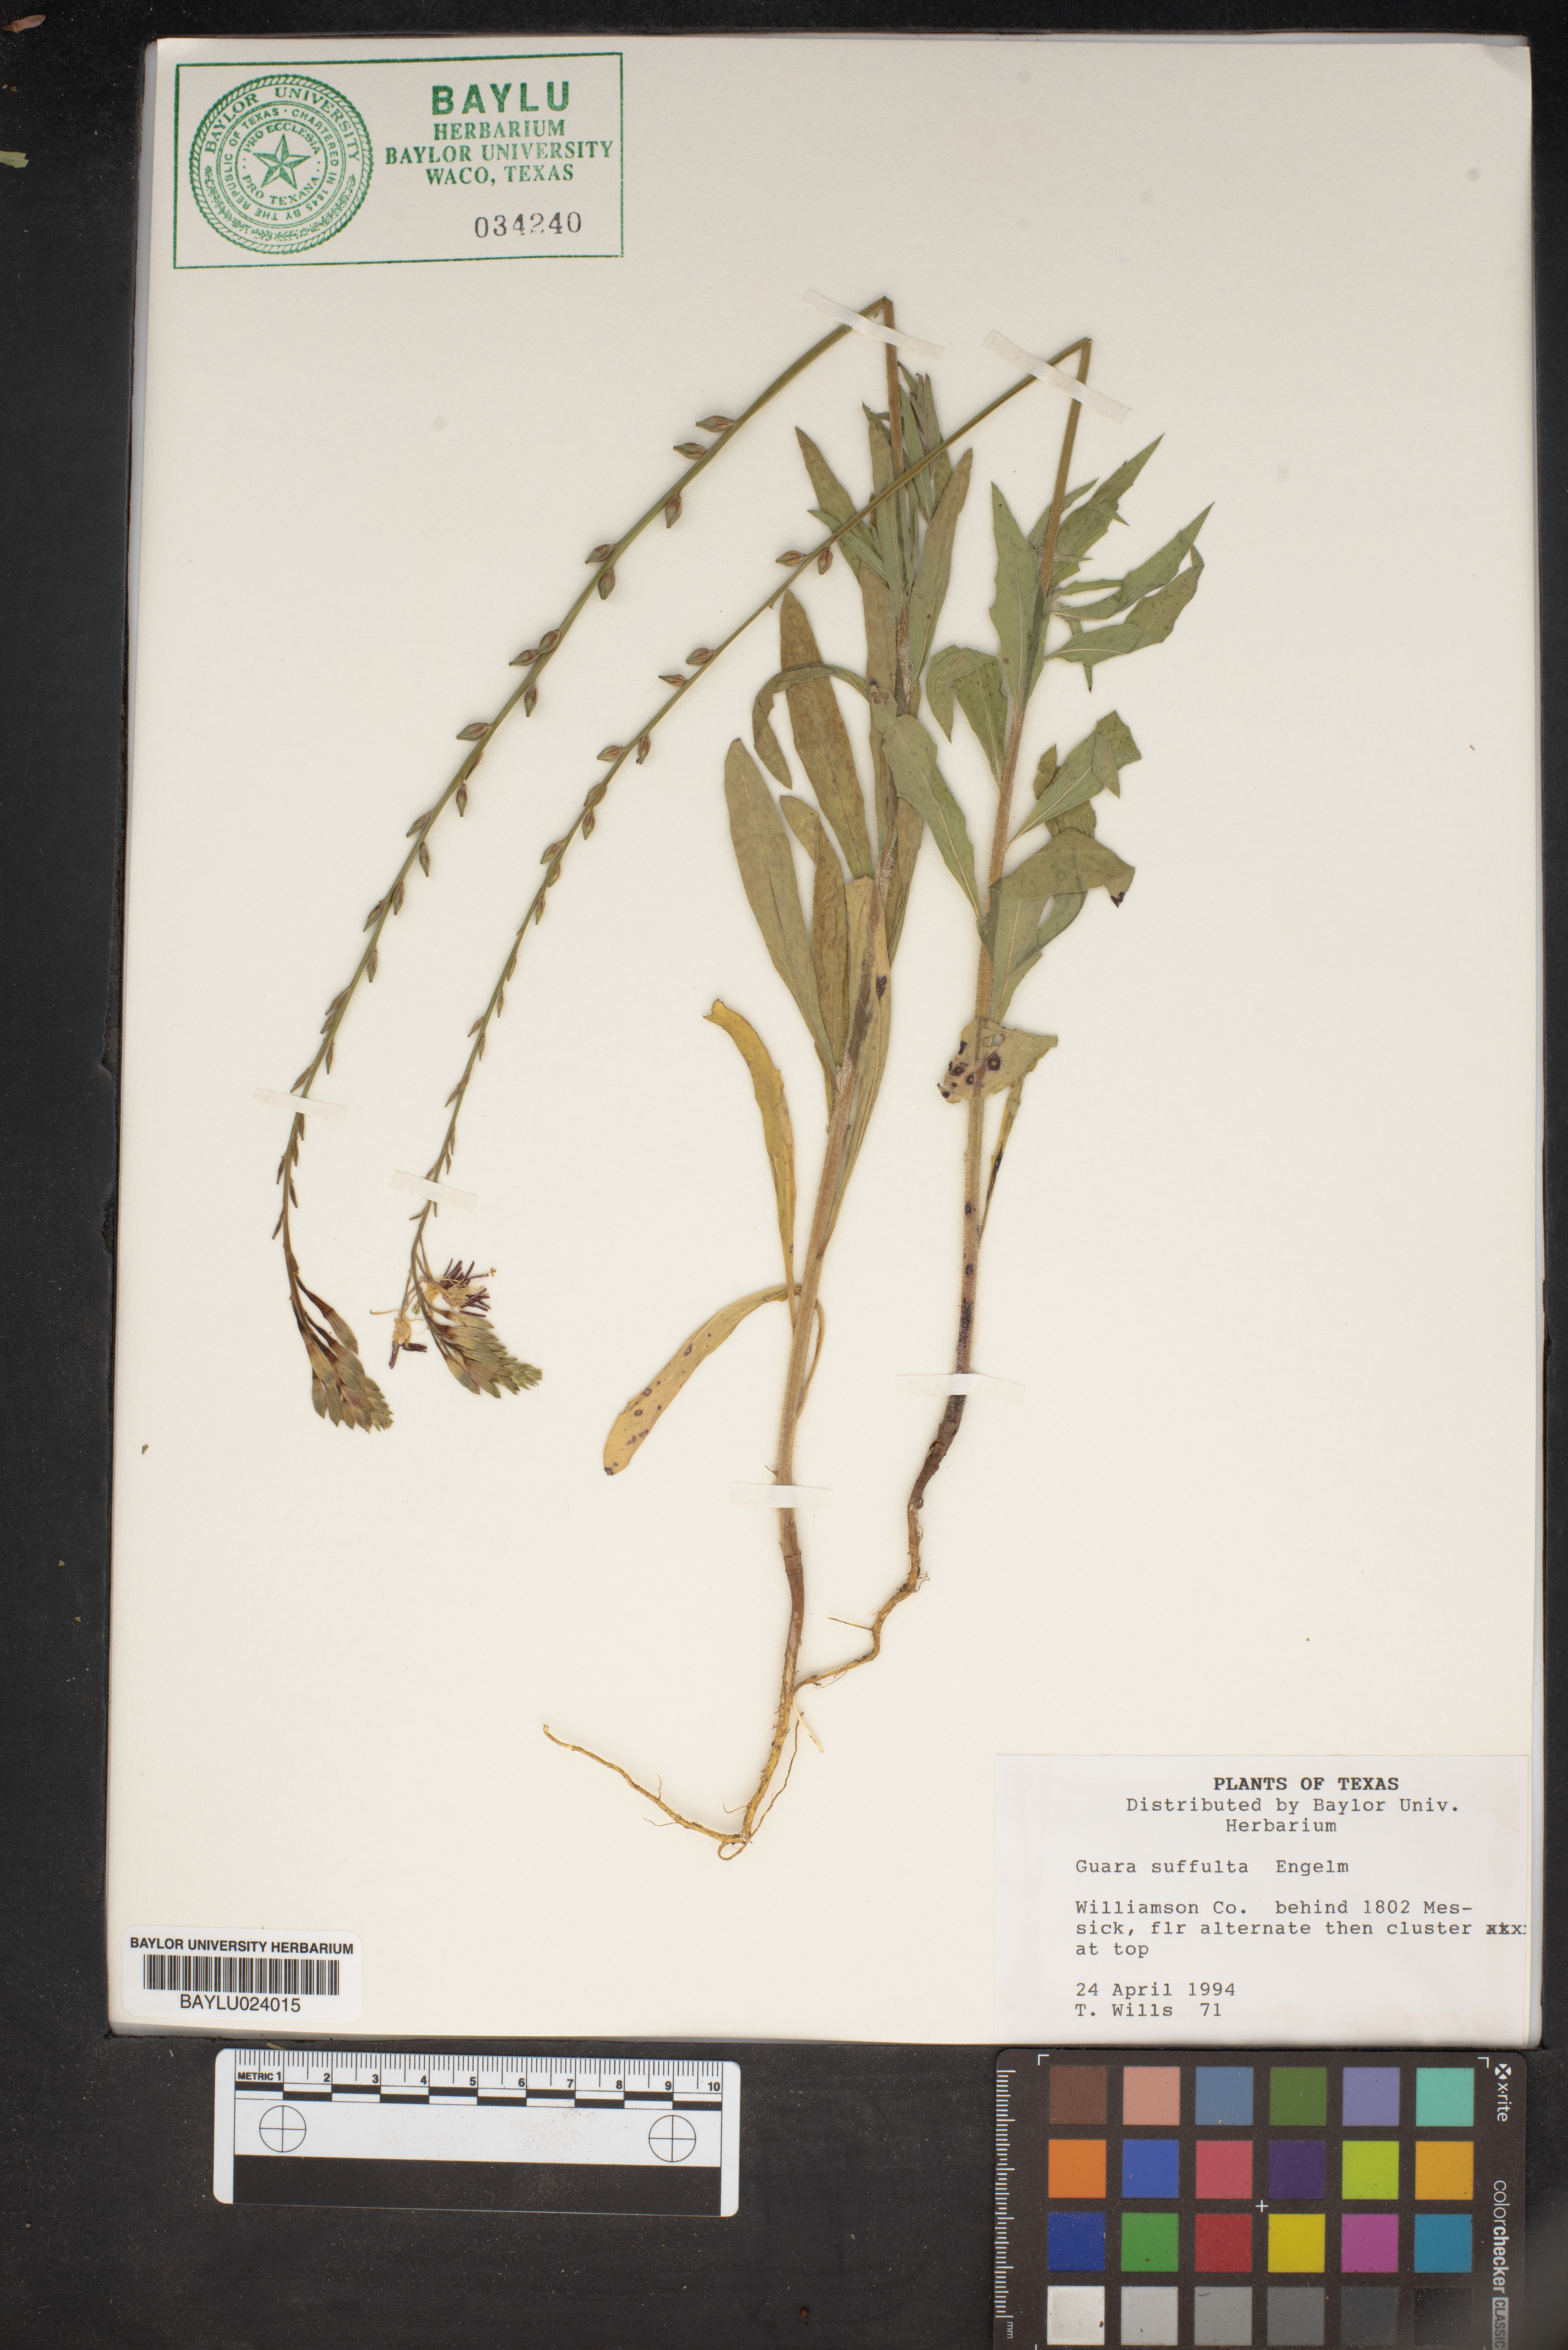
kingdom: Plantae
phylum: Tracheophyta
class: Magnoliopsida
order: Myrtales
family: Onagraceae
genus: Oenothera
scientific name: Oenothera Gaura suffulta
